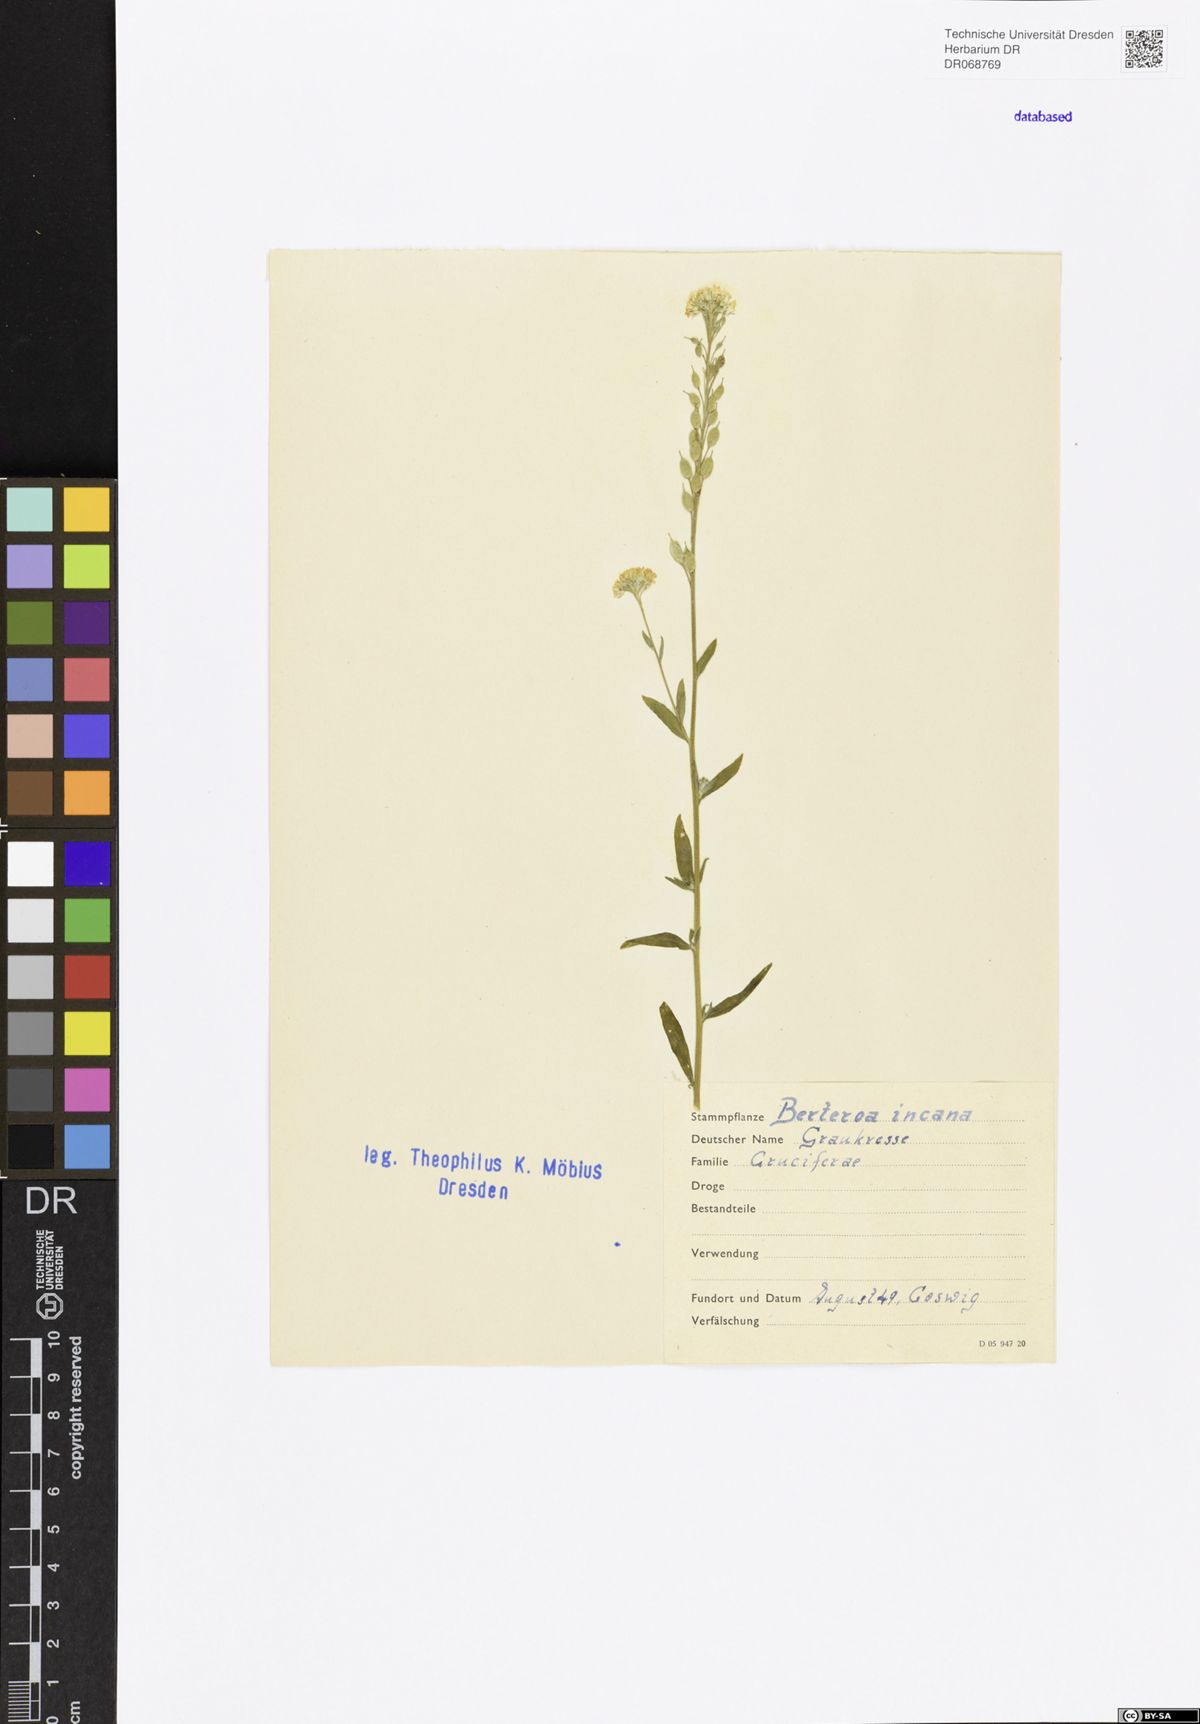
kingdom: Plantae
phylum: Tracheophyta
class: Magnoliopsida
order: Brassicales
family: Brassicaceae
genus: Berteroa
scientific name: Berteroa incana
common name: Hoary alison
